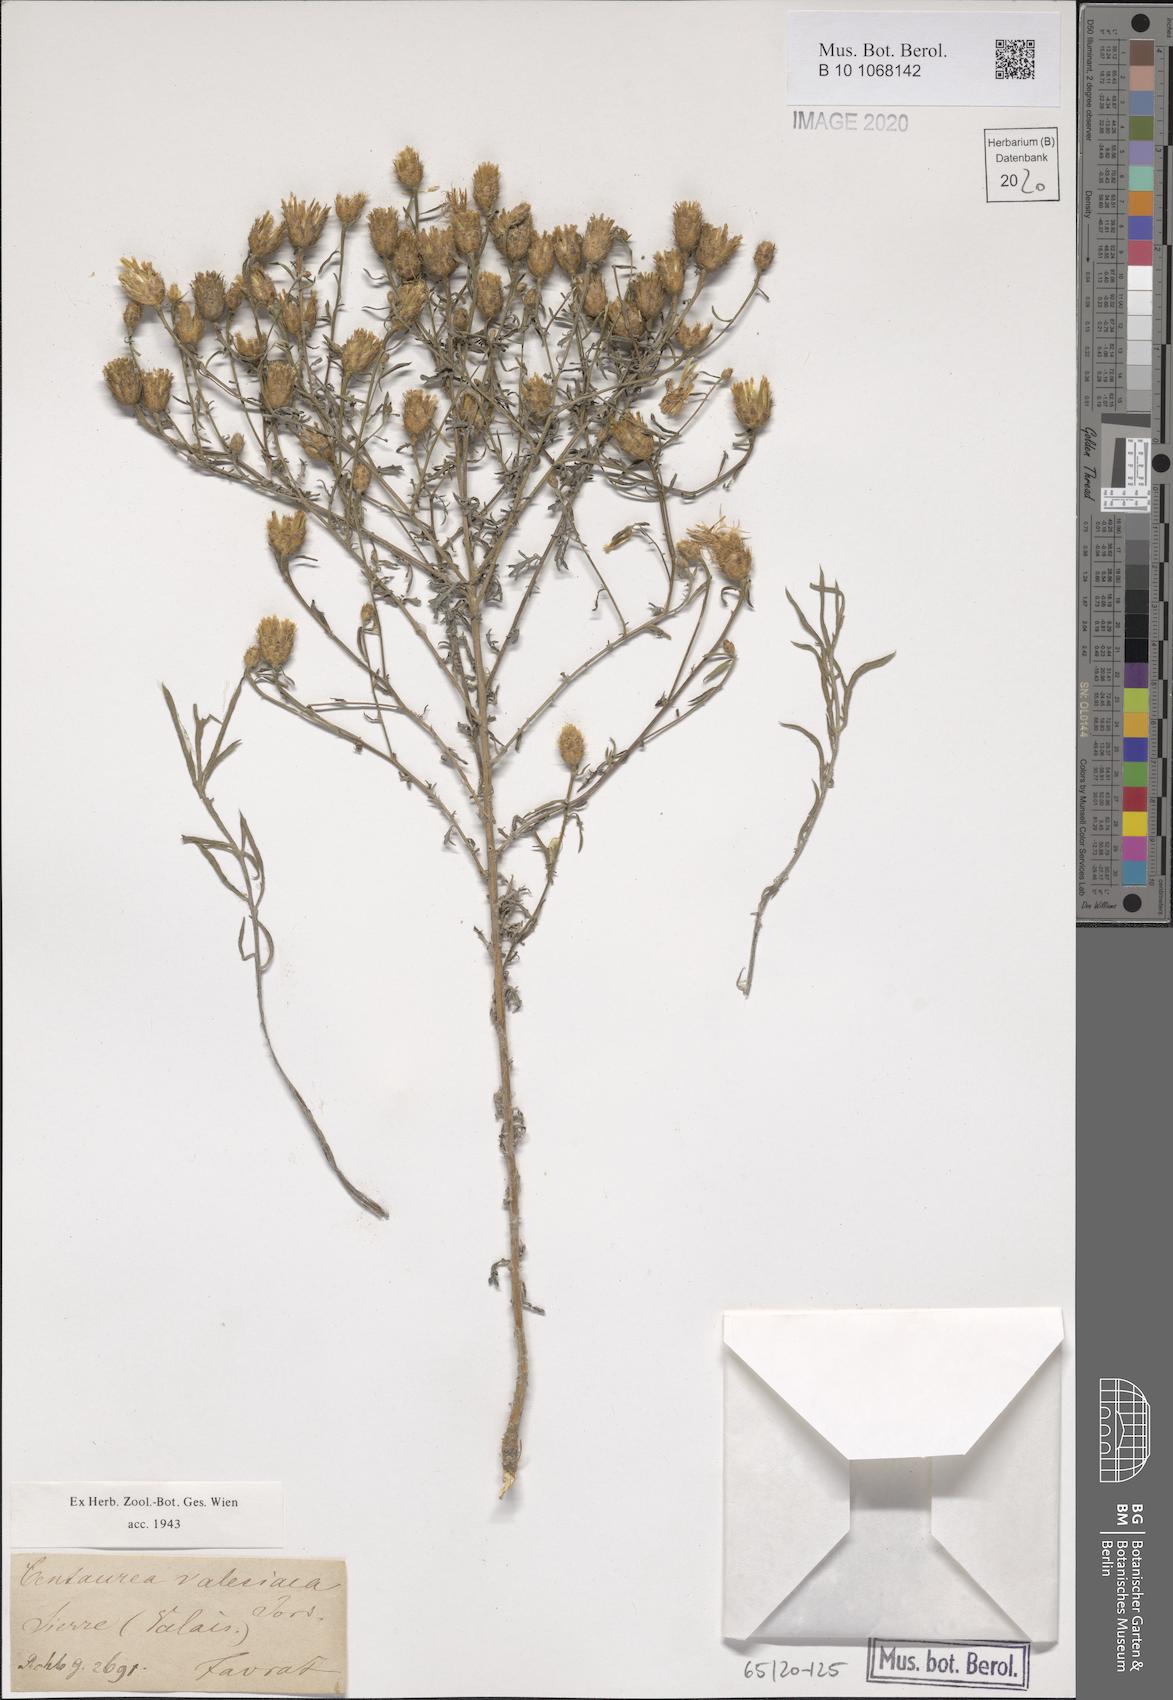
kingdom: Plantae
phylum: Tracheophyta
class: Magnoliopsida
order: Asterales
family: Asteraceae
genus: Centaurea
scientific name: Centaurea valesiaca
